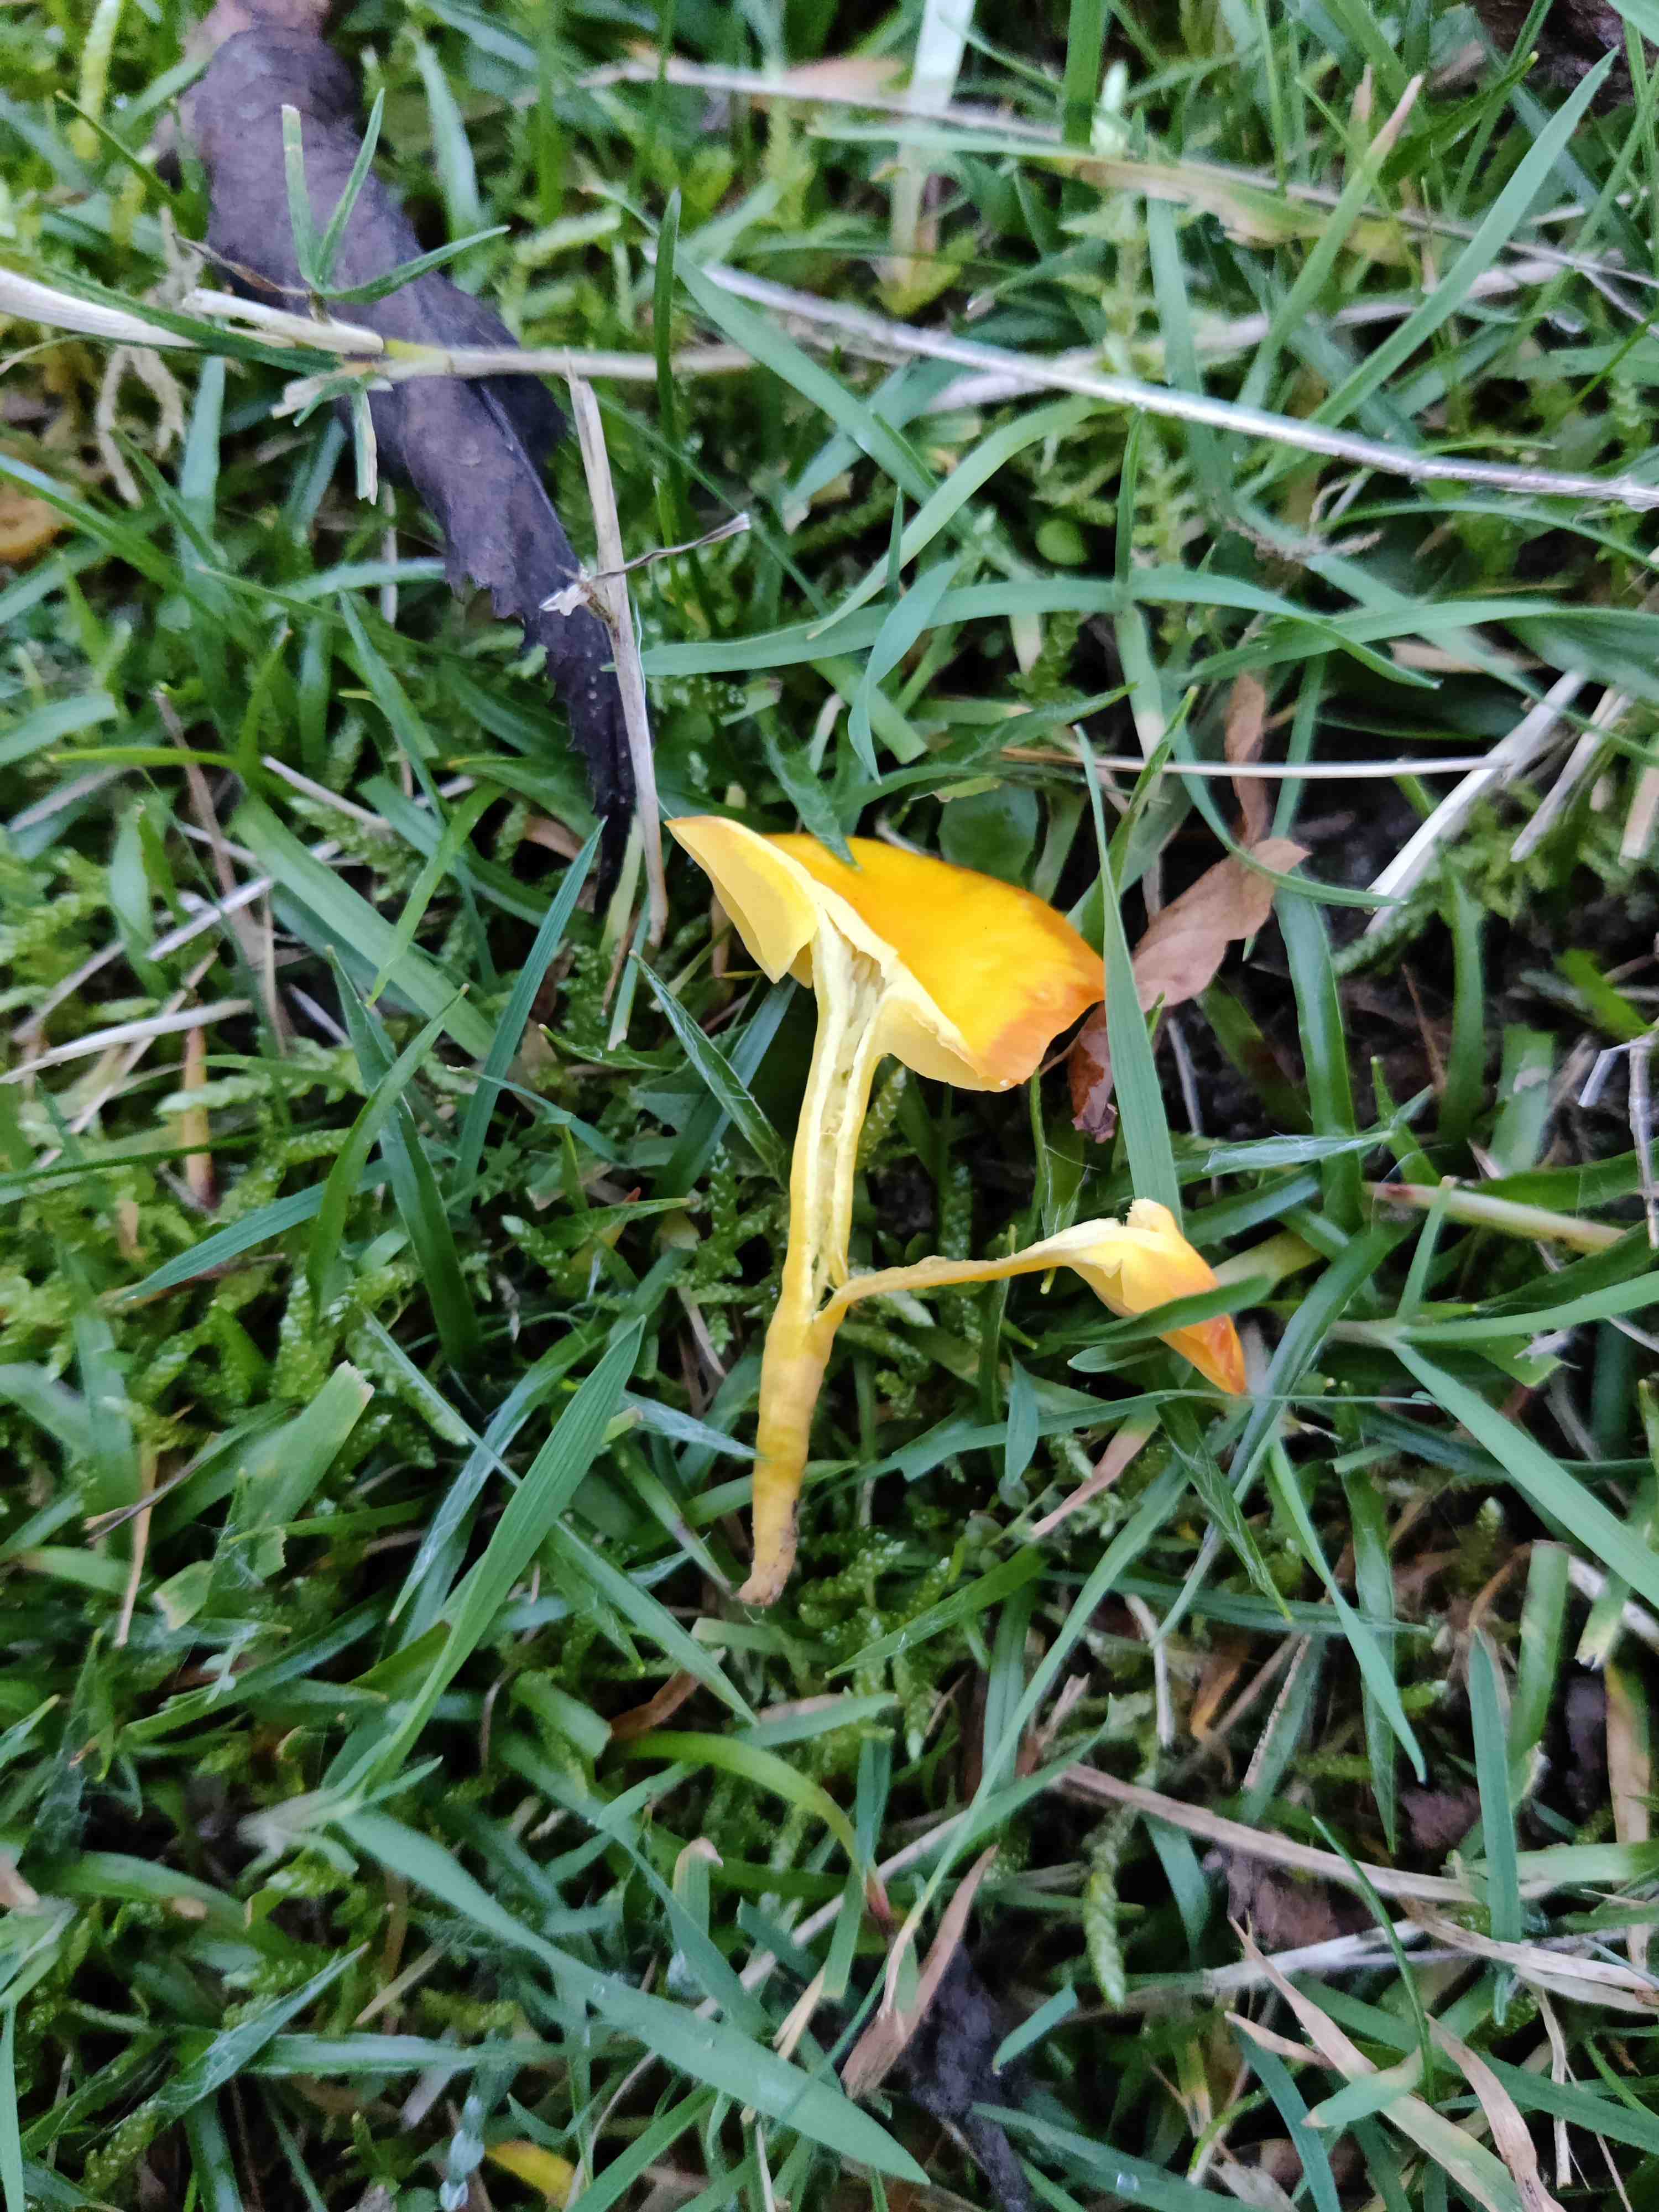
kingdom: Fungi
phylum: Basidiomycota
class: Agaricomycetes
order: Agaricales
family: Hygrophoraceae
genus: Hygrocybe
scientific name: Hygrocybe ceracea
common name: voksgul vokshat
